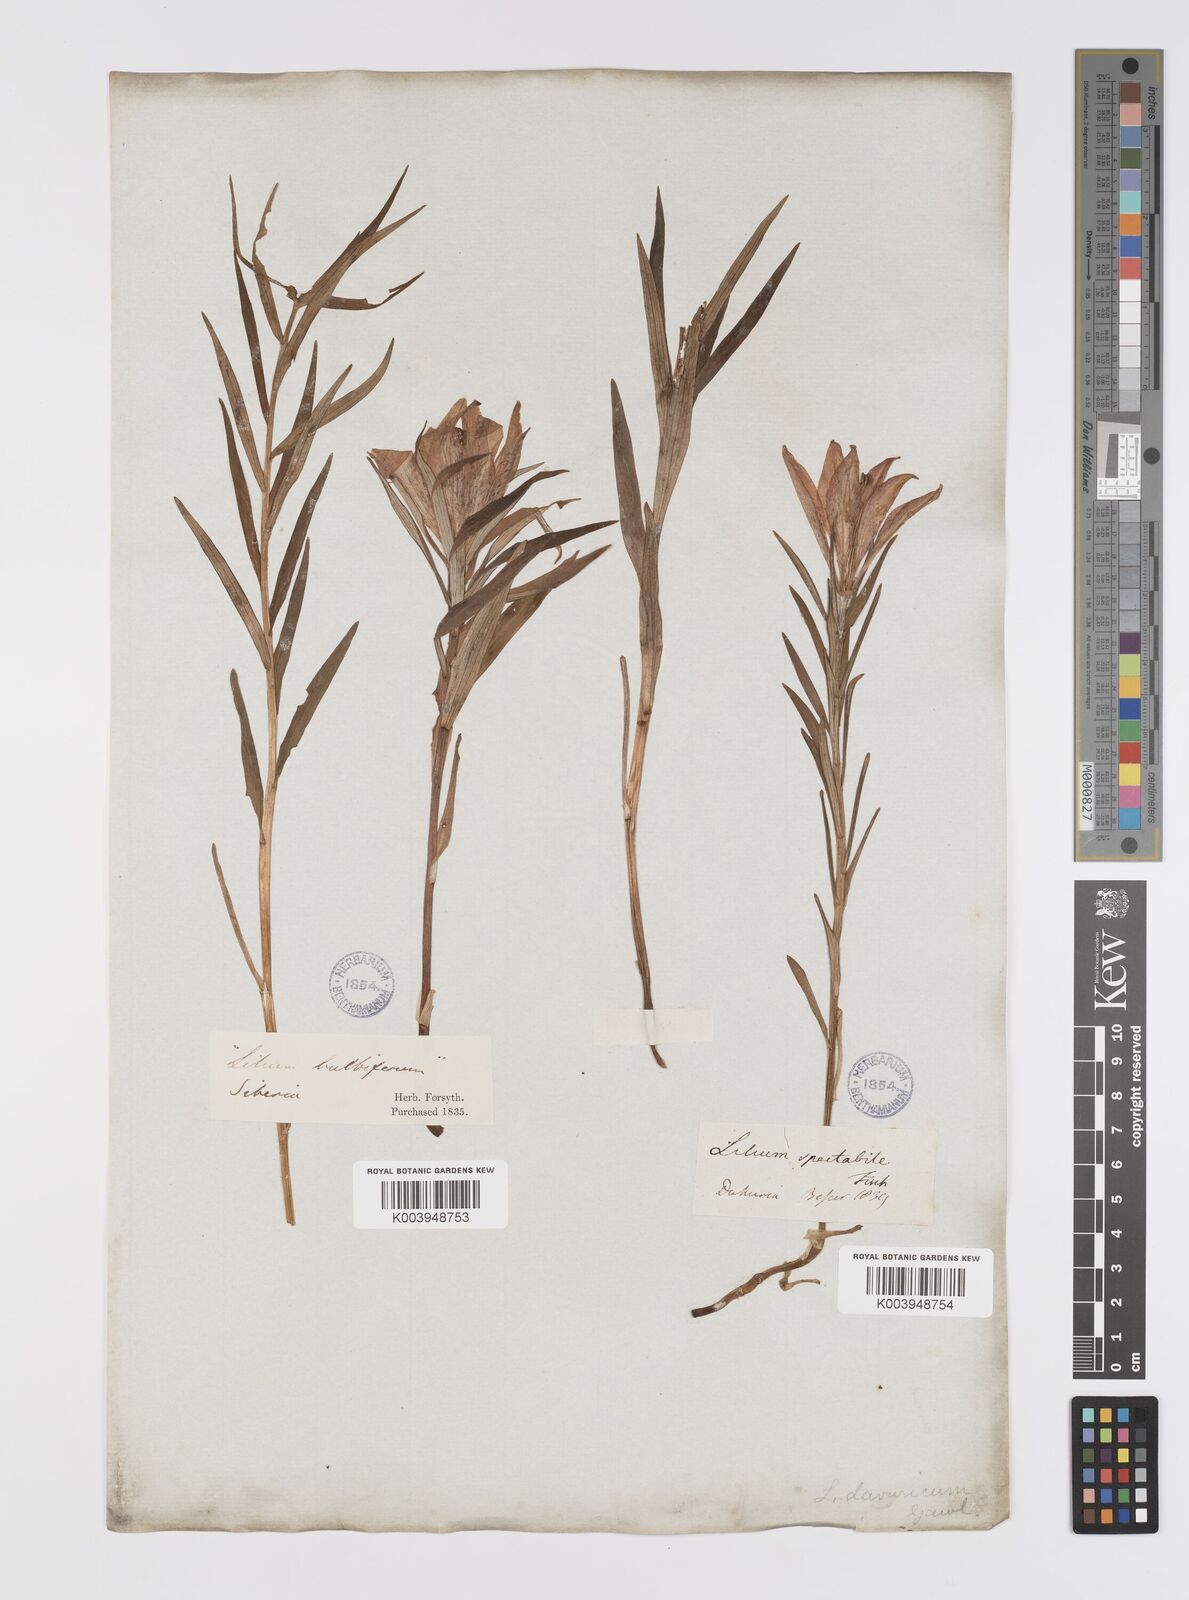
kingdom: Plantae
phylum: Tracheophyta
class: Liliopsida
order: Liliales
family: Liliaceae
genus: Lilium
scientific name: Lilium pensylvanicum
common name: Candlestick lily
